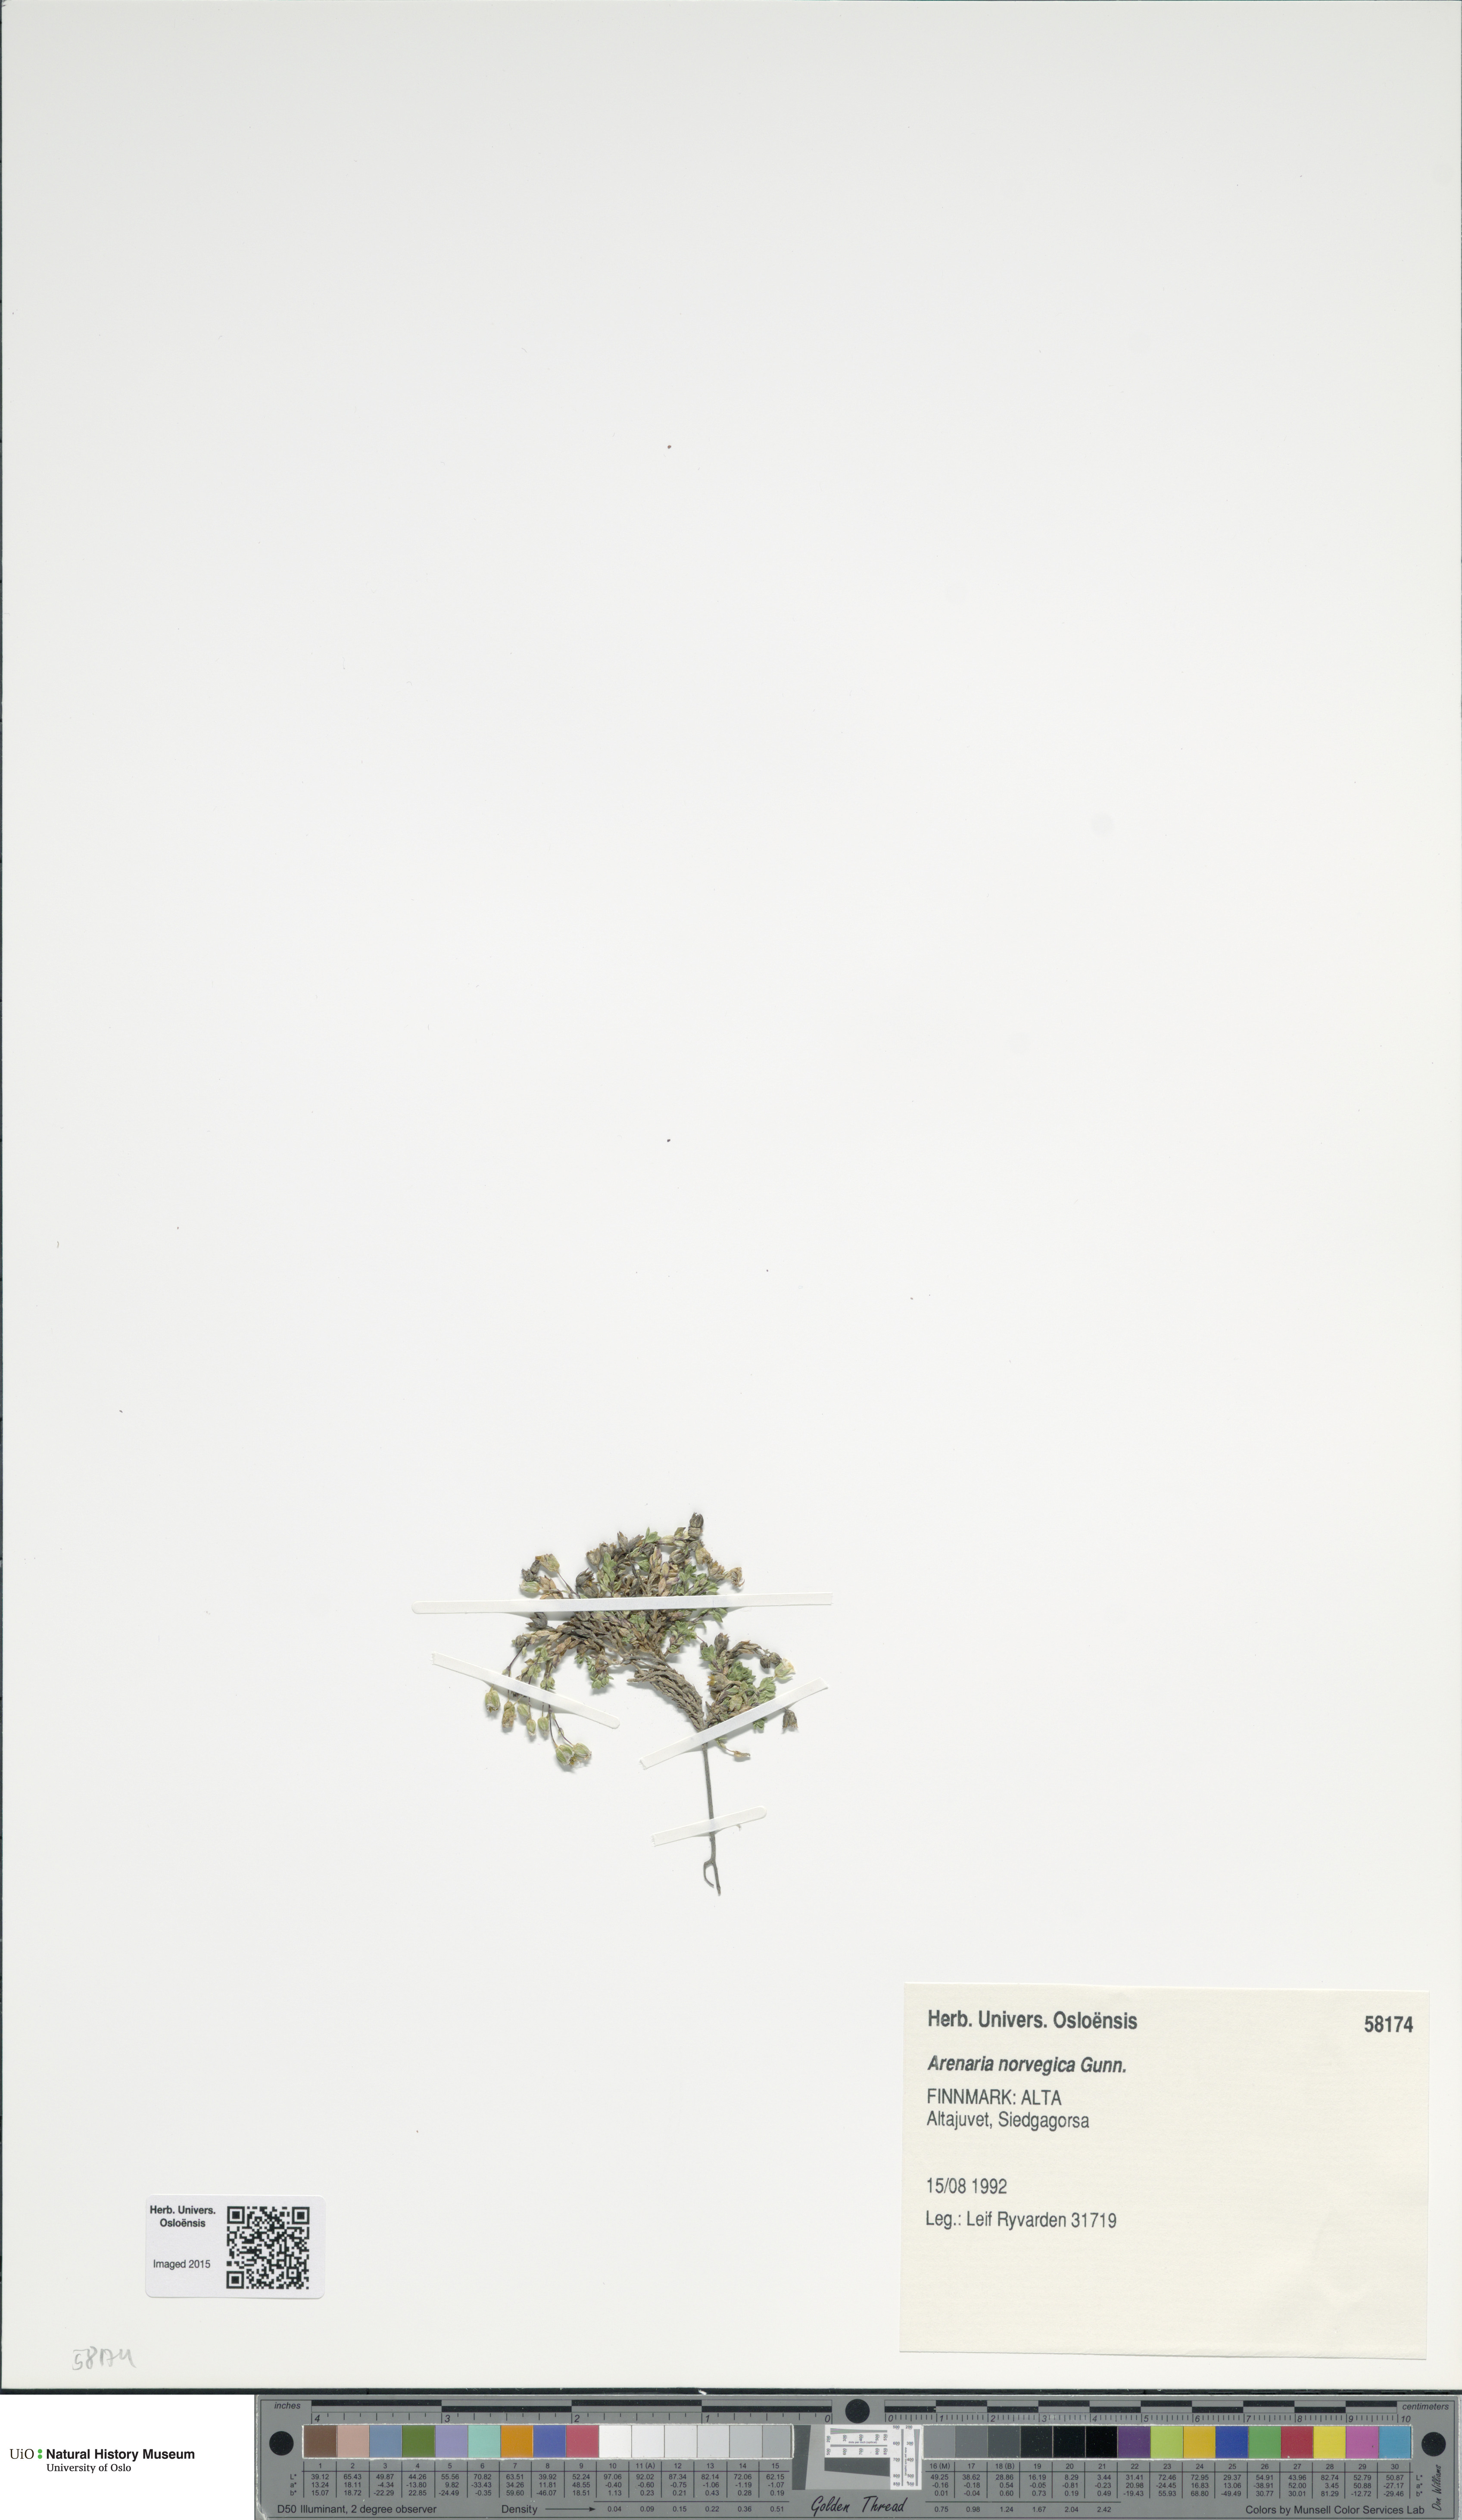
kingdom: Plantae
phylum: Tracheophyta
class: Magnoliopsida
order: Caryophyllales
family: Caryophyllaceae
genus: Arenaria
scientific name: Arenaria norvegica
